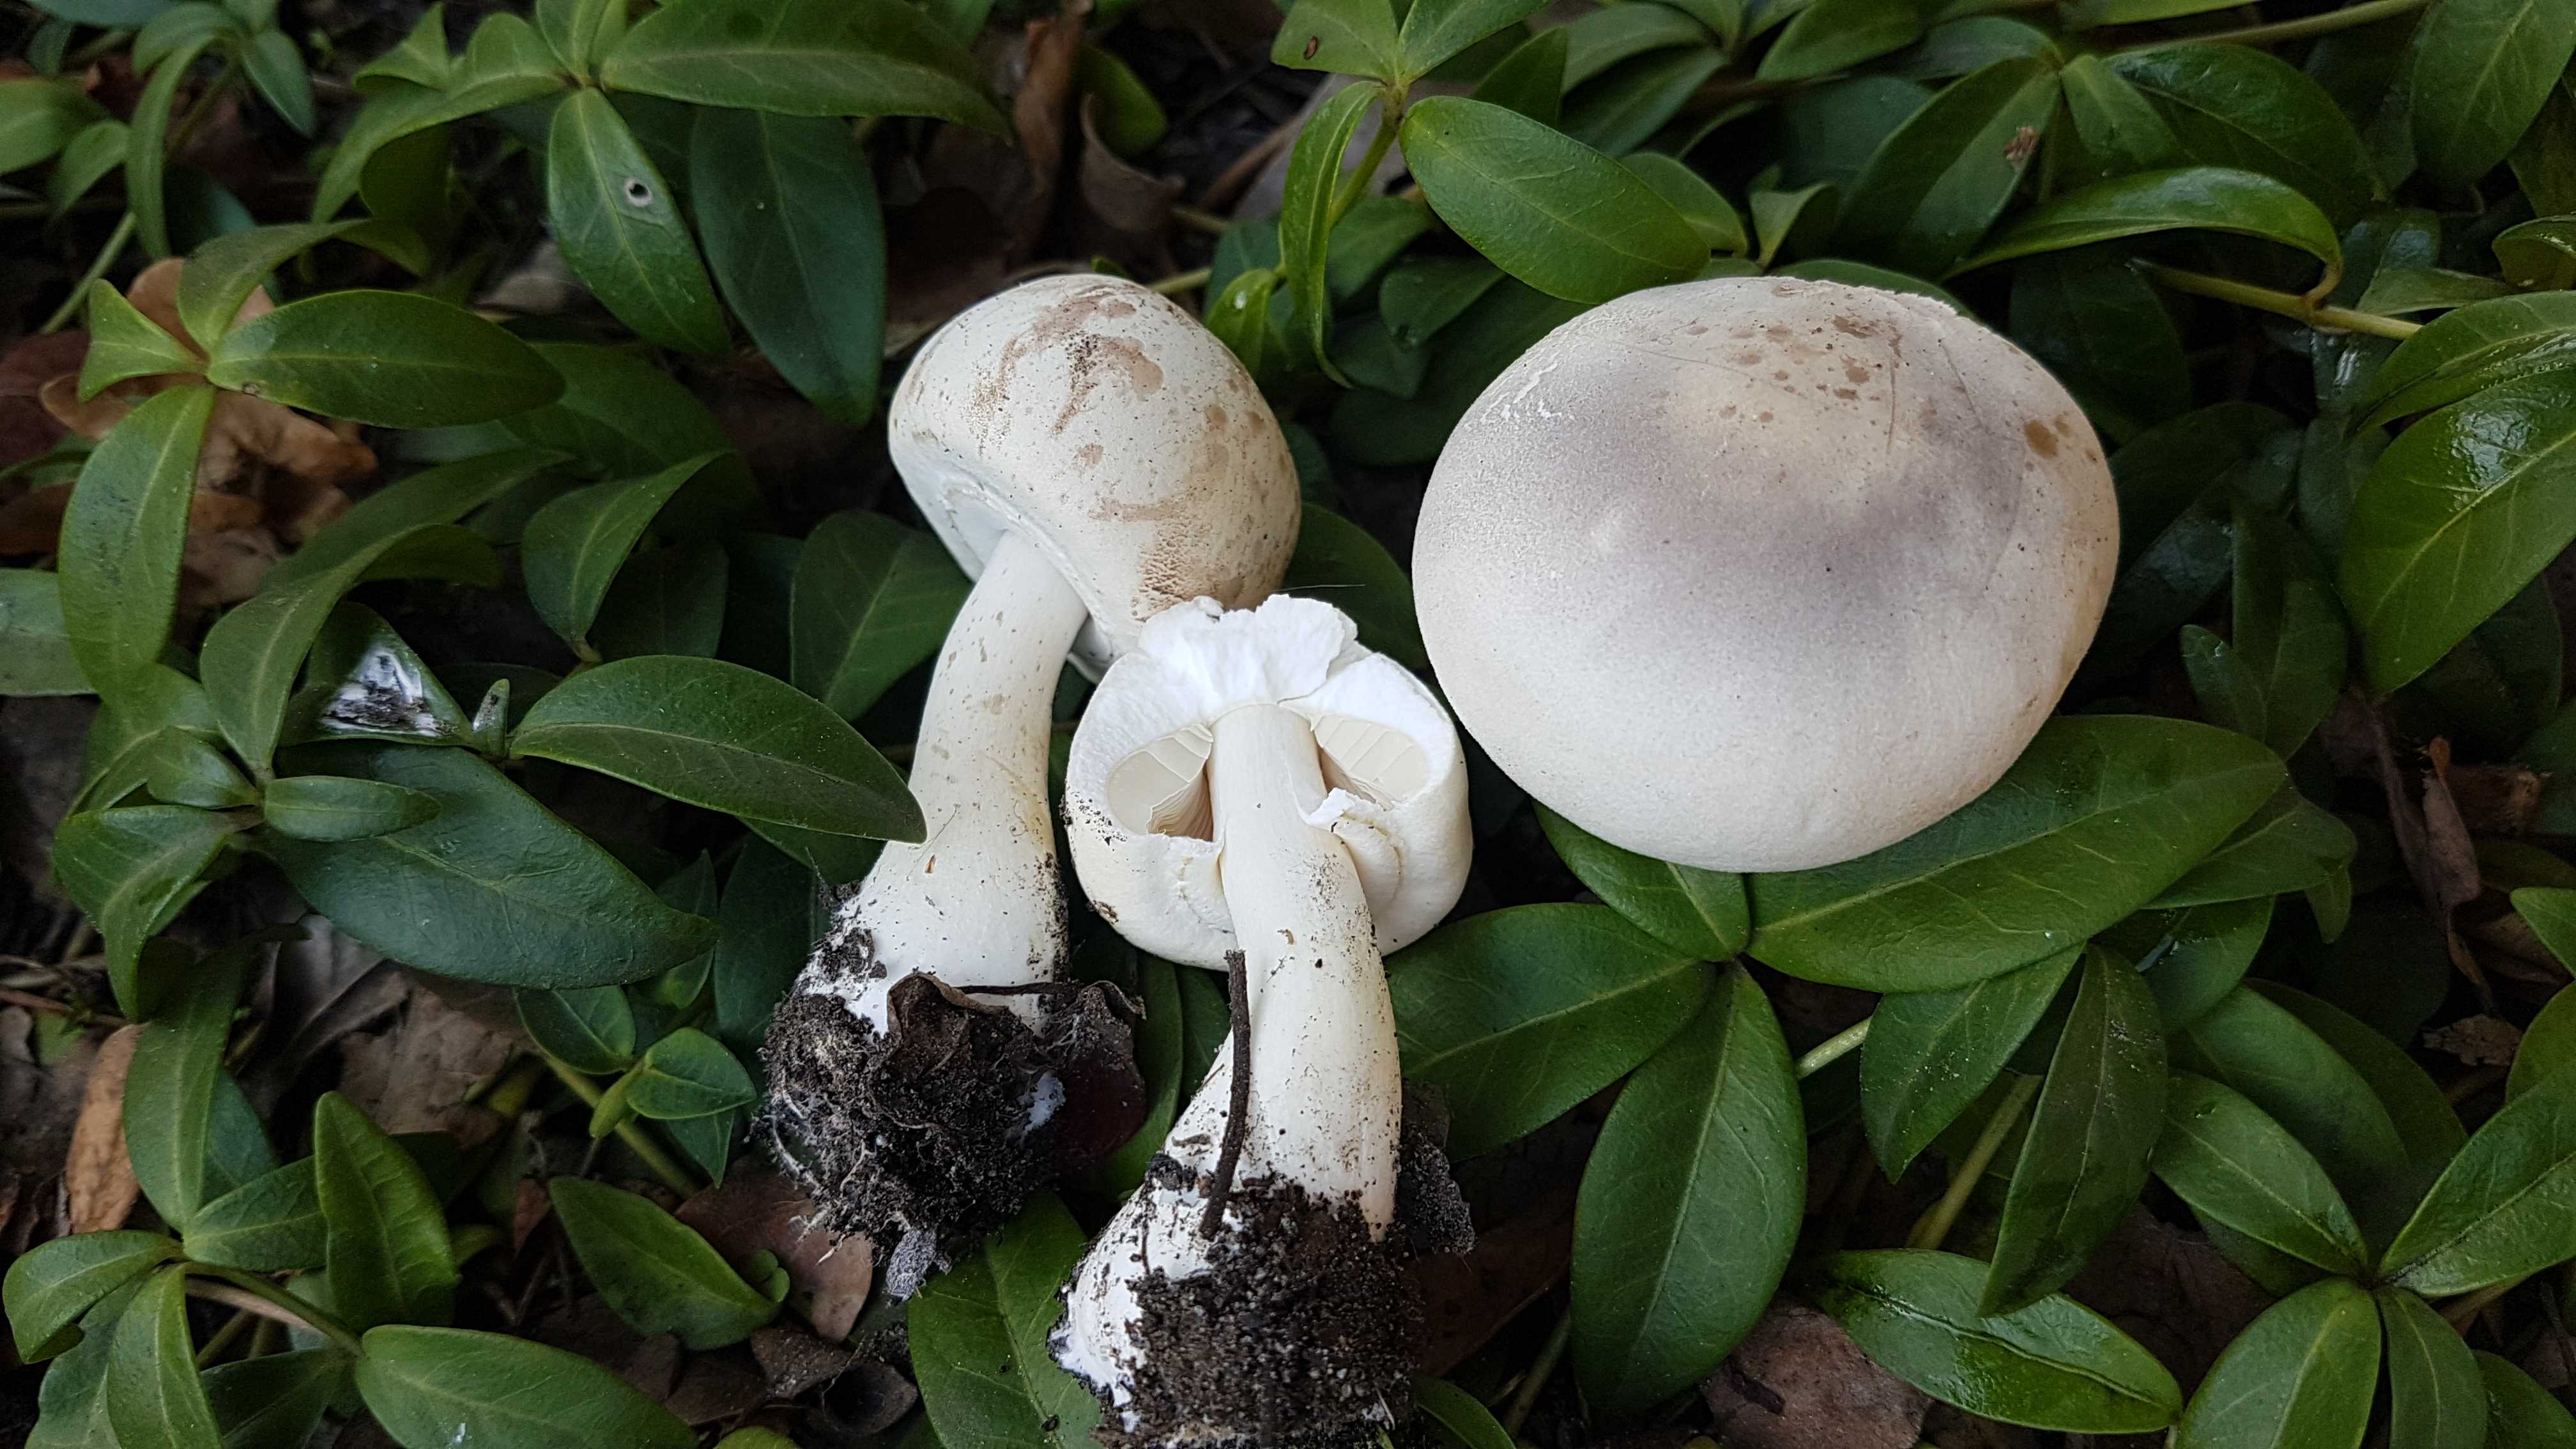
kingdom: Fungi
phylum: Basidiomycota
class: Agaricomycetes
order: Agaricales
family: Agaricaceae
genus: Agaricus
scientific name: Agaricus xanthodermus
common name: karbol-champignon
